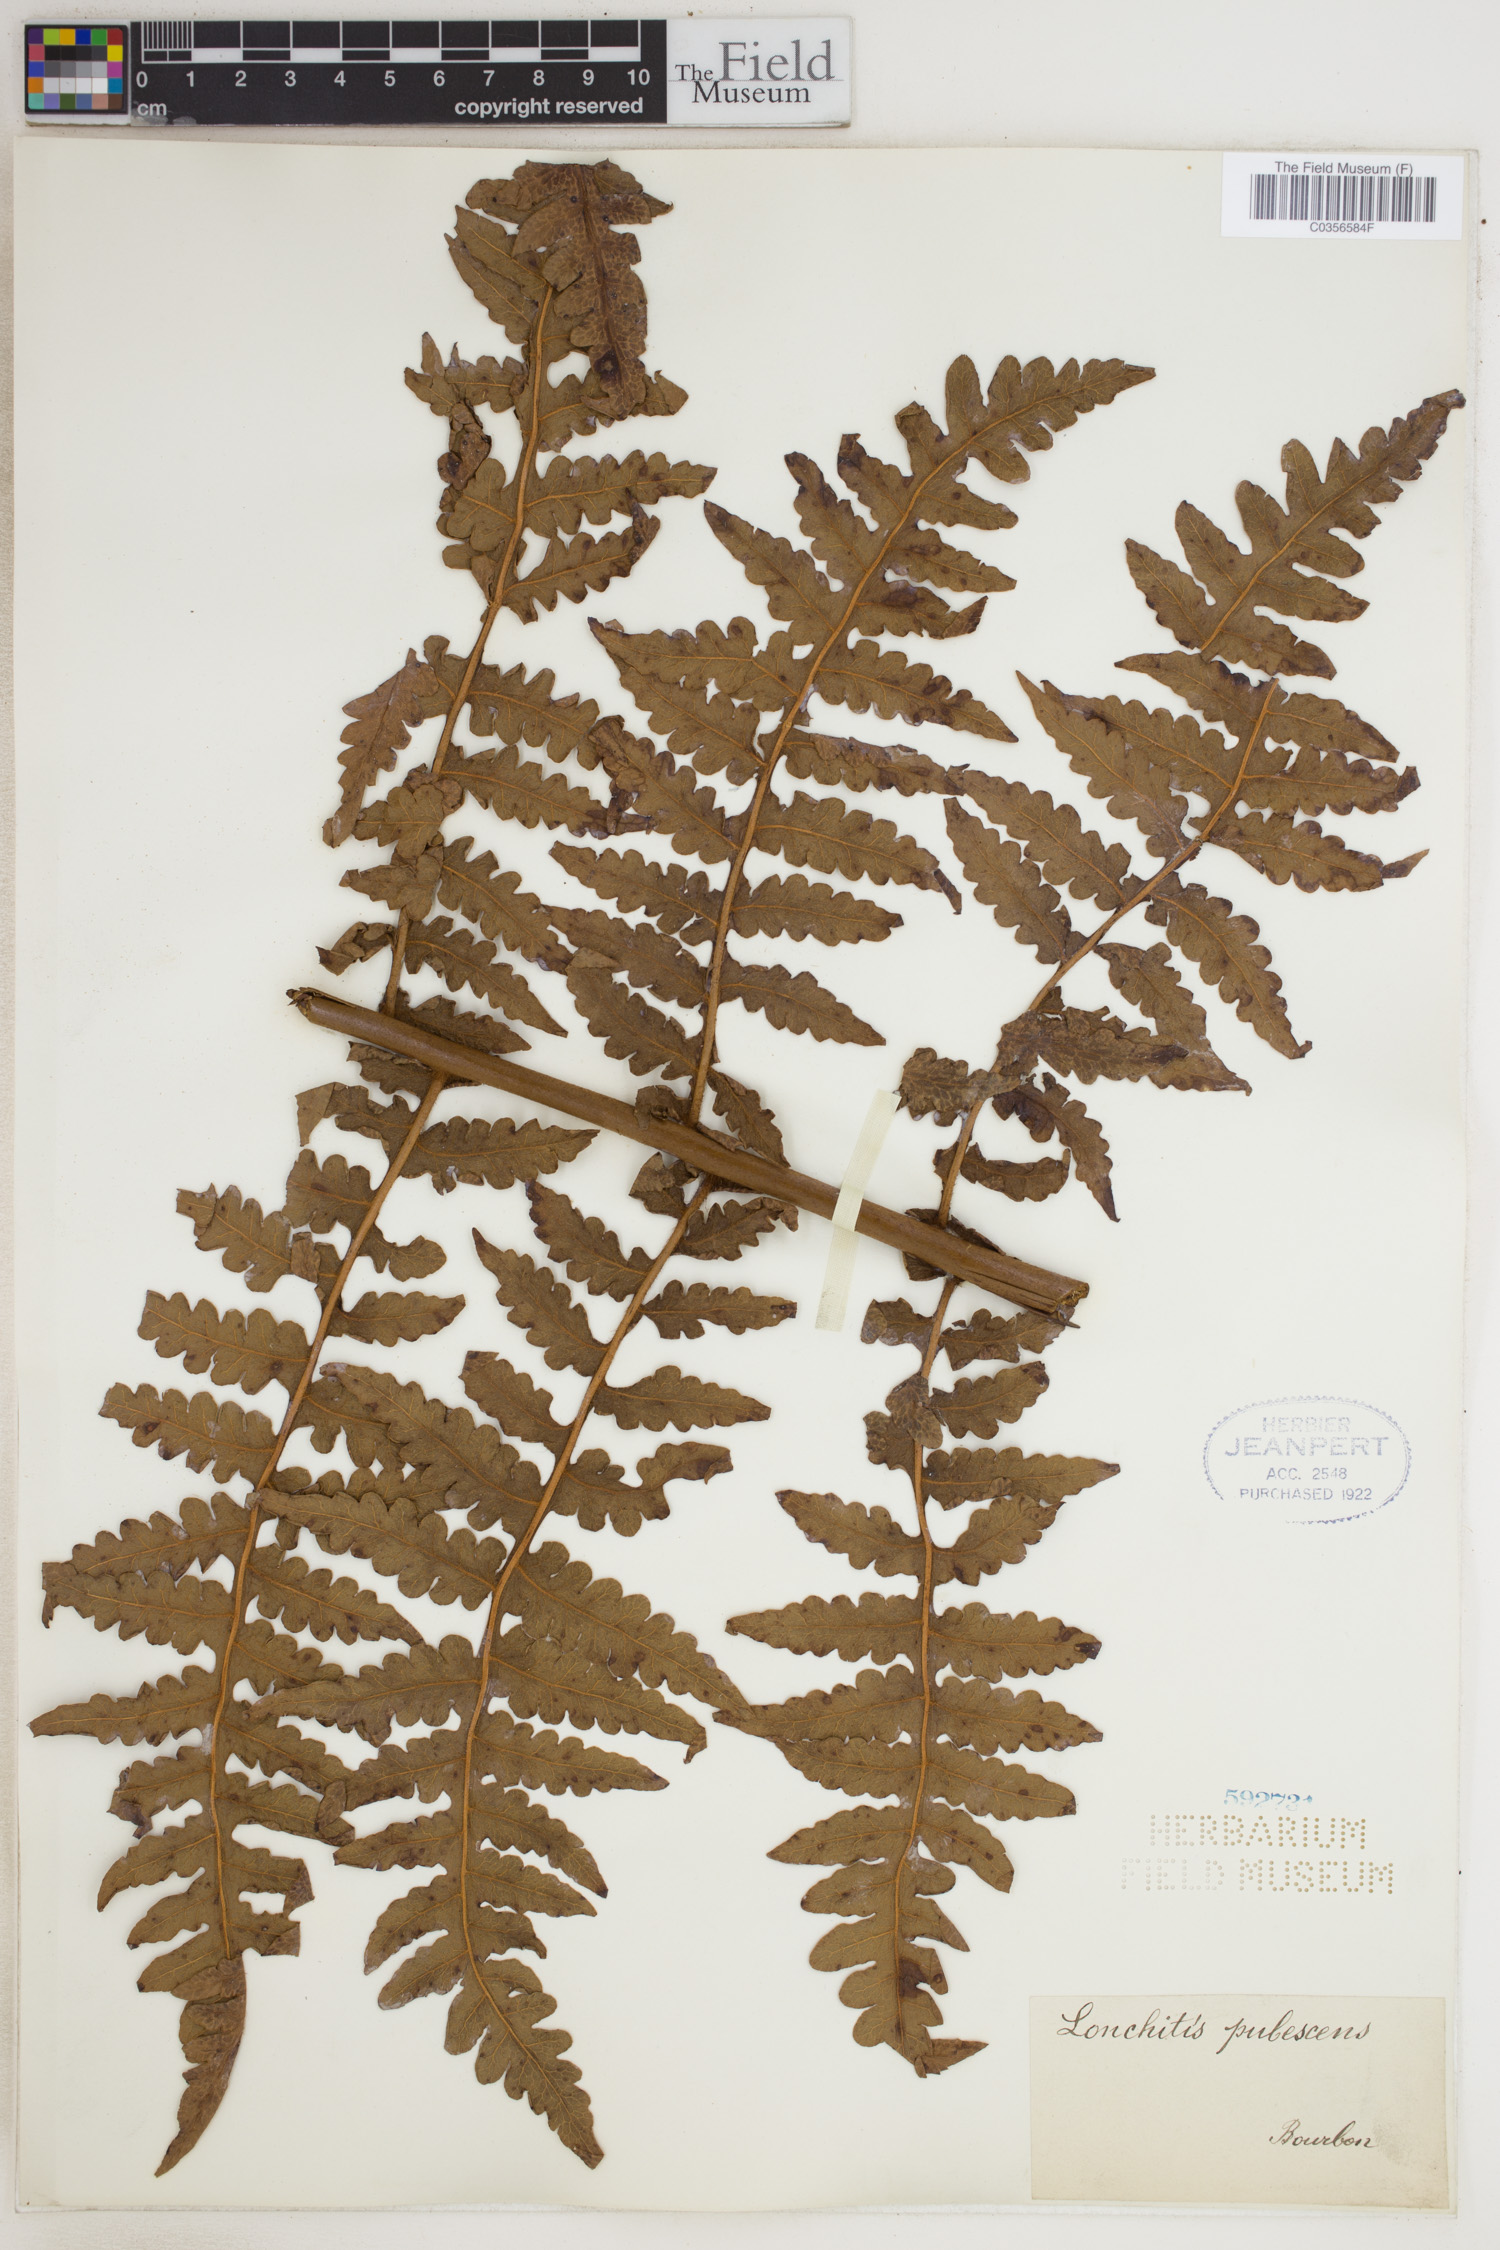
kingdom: Plantae
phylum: Tracheophyta
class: Polypodiopsida
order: Polypodiales
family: Dennstaedtiaceae
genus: Blotiella
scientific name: Blotiella natalensis
